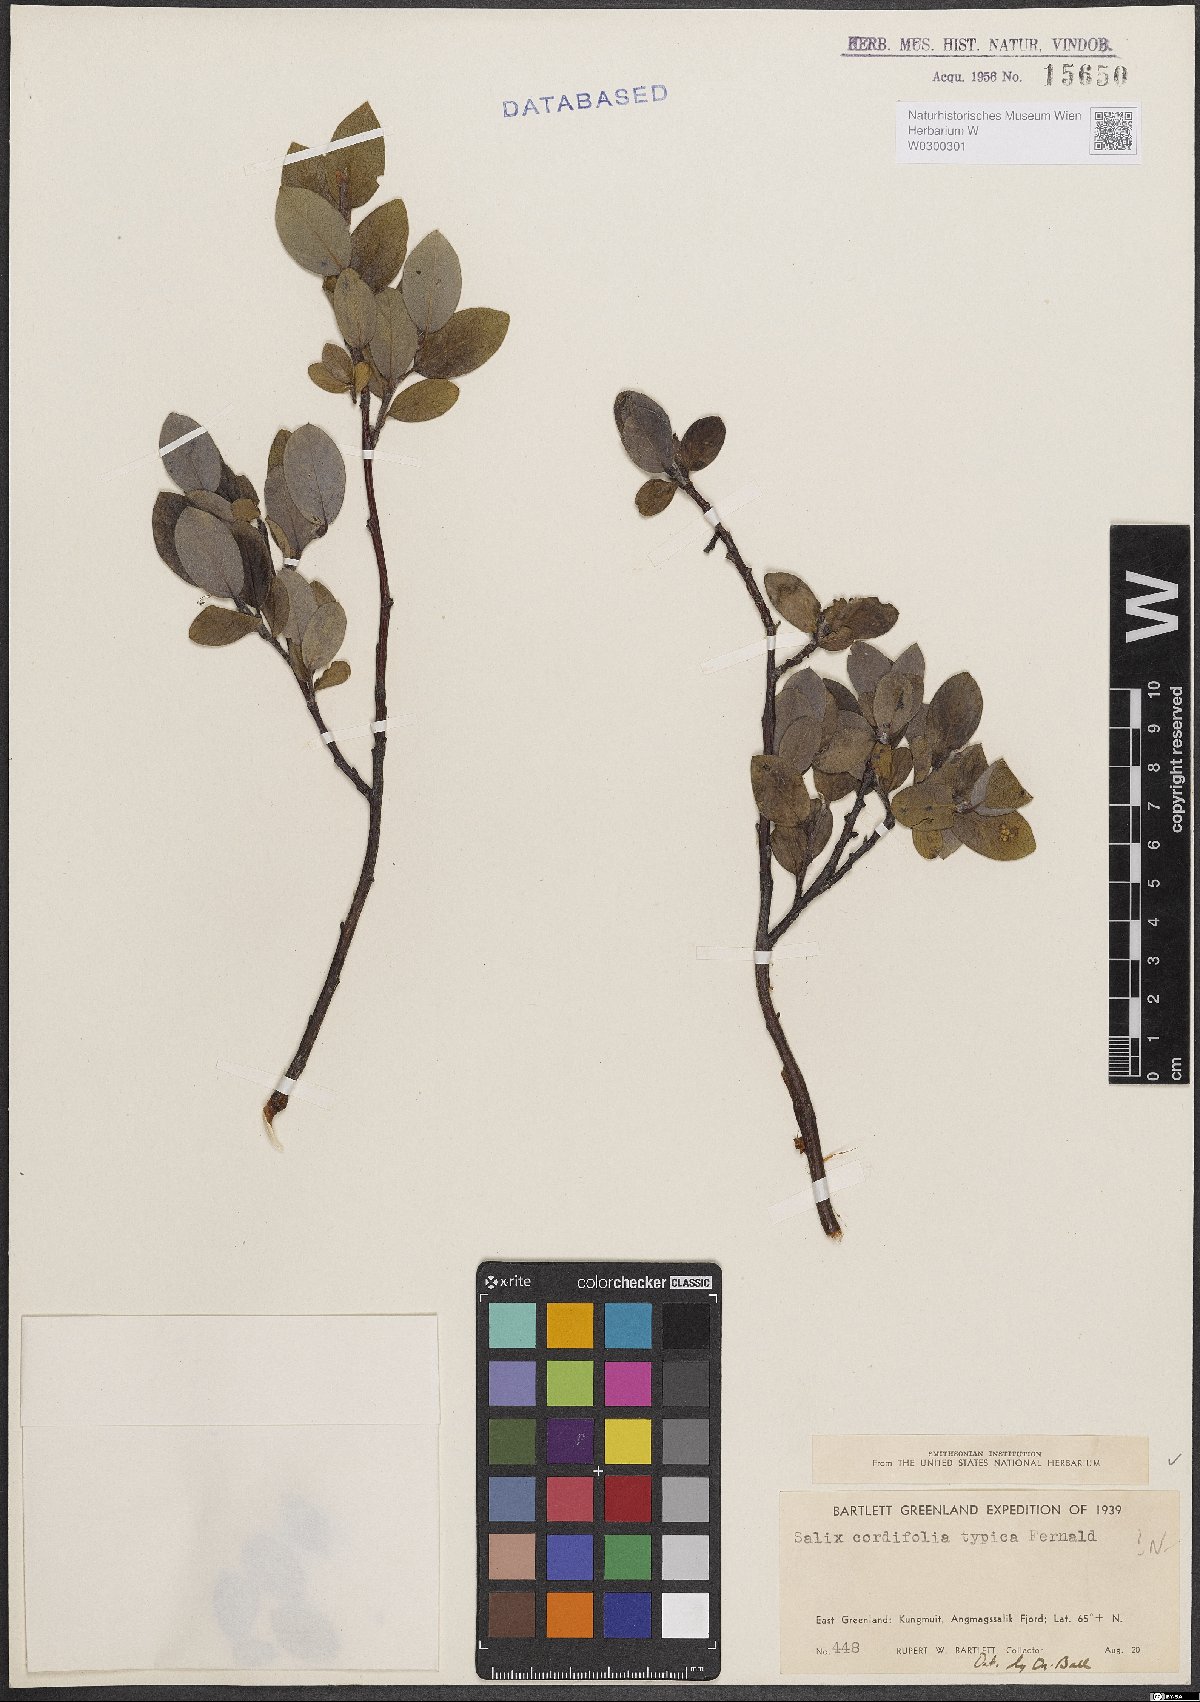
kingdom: Plantae
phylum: Tracheophyta
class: Magnoliopsida
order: Malpighiales
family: Salicaceae
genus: Salix
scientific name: Salix
